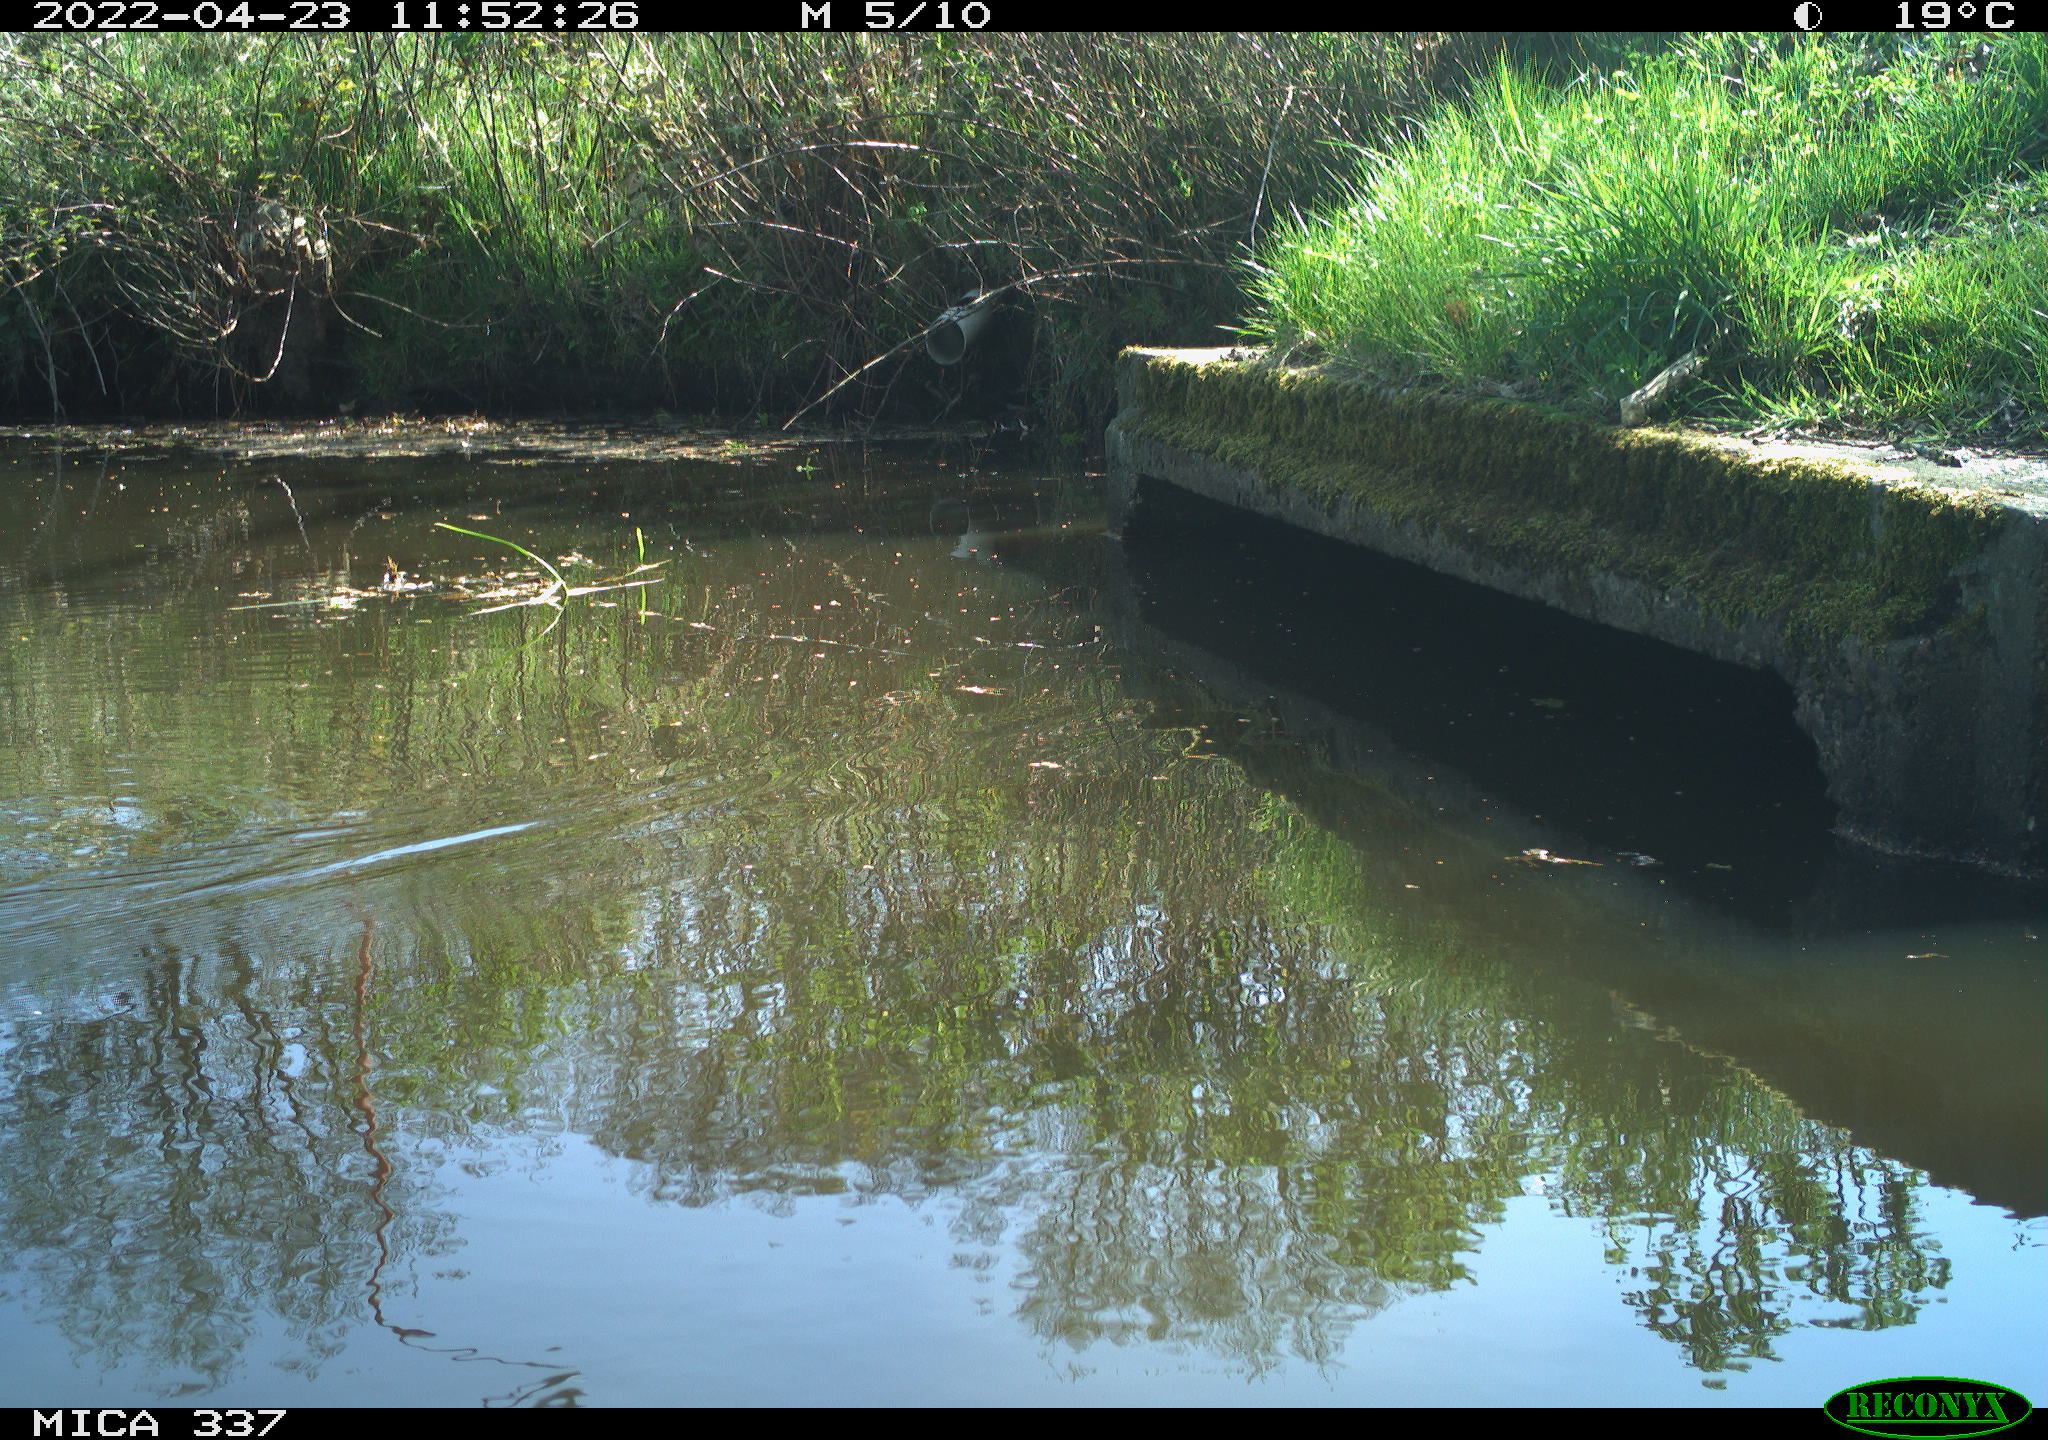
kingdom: Animalia
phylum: Chordata
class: Aves
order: Gruiformes
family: Rallidae
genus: Gallinula
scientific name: Gallinula chloropus
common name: Common moorhen
